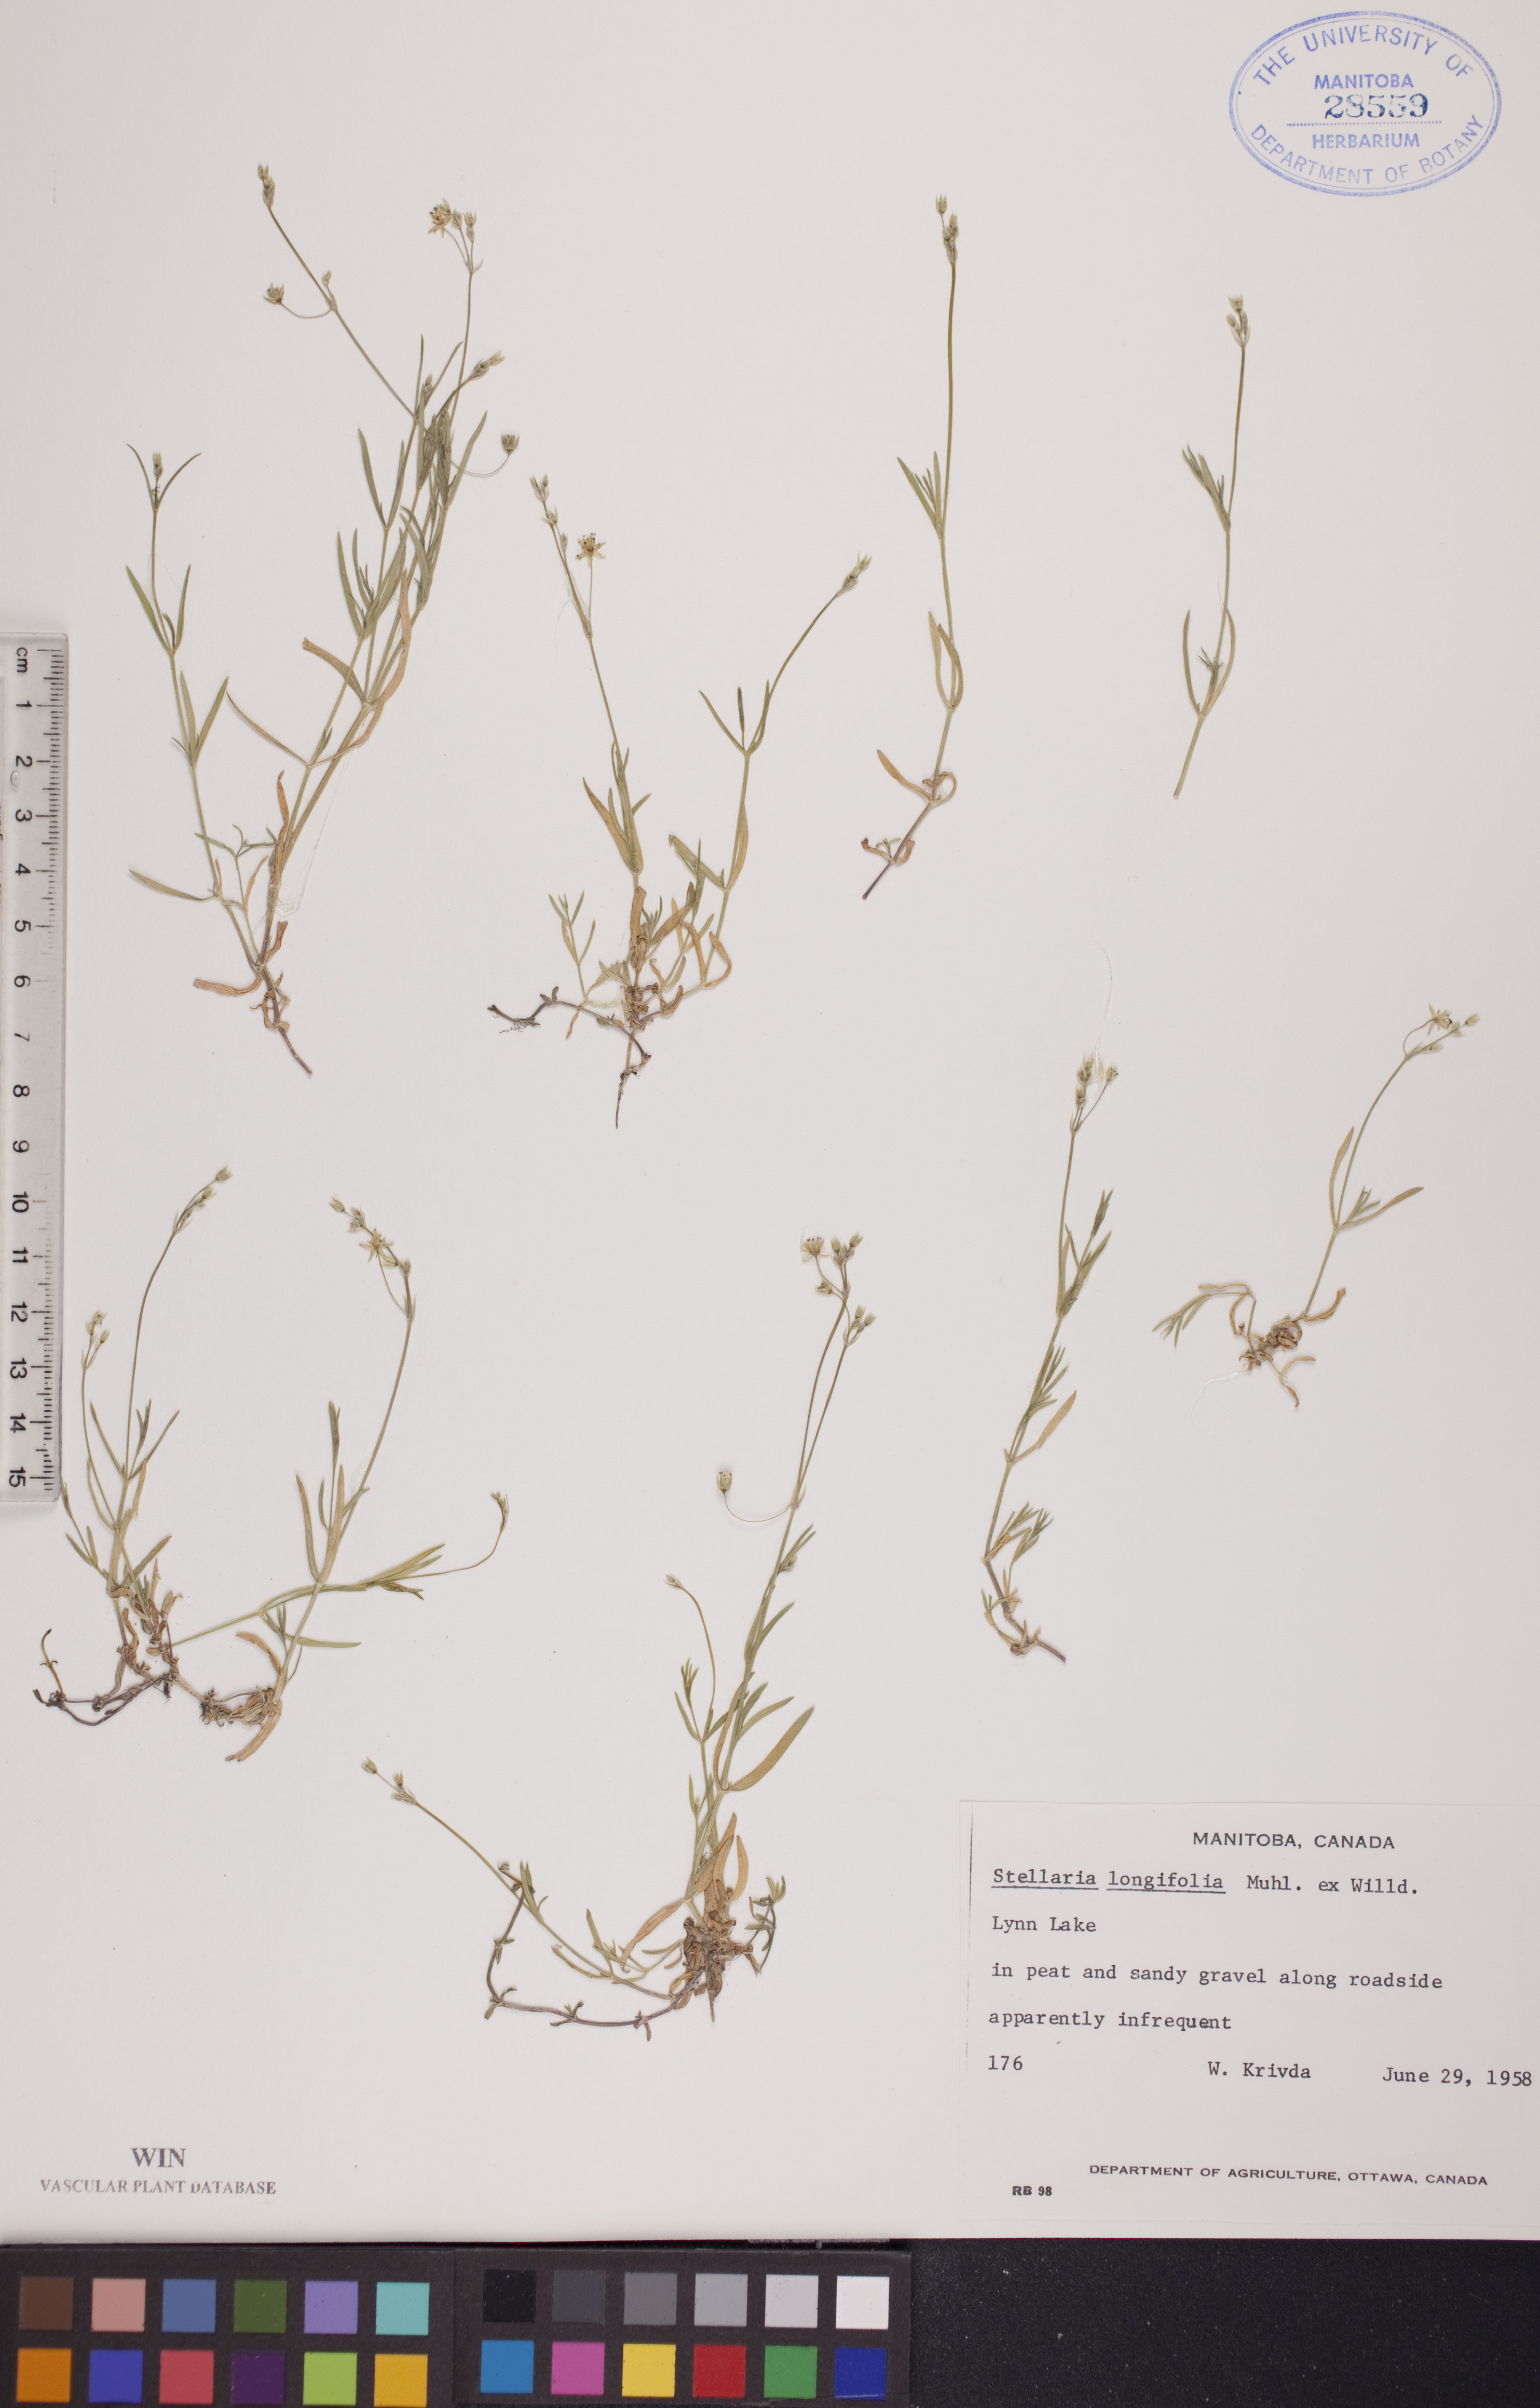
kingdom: Plantae
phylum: Tracheophyta
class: Magnoliopsida
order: Caryophyllales
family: Caryophyllaceae
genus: Stellaria
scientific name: Stellaria longifolia
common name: Long-leaved chickweed
